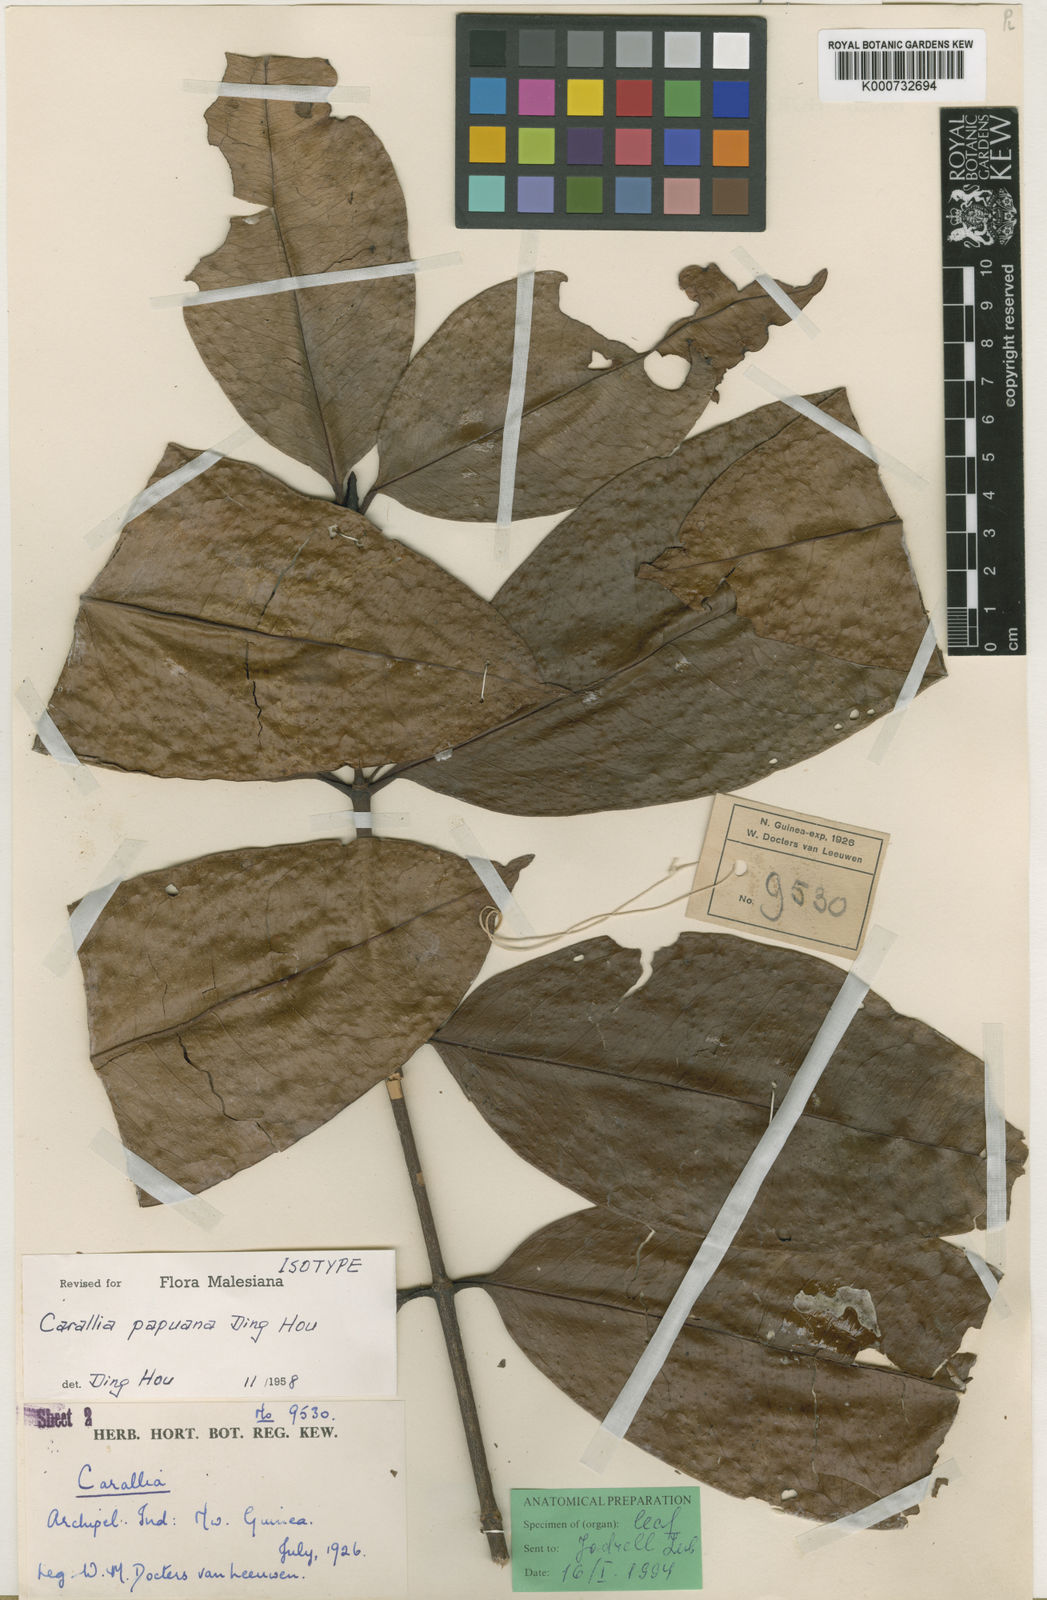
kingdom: Plantae
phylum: Tracheophyta
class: Magnoliopsida
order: Malpighiales
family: Rhizophoraceae
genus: Carallia
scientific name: Carallia papuana
